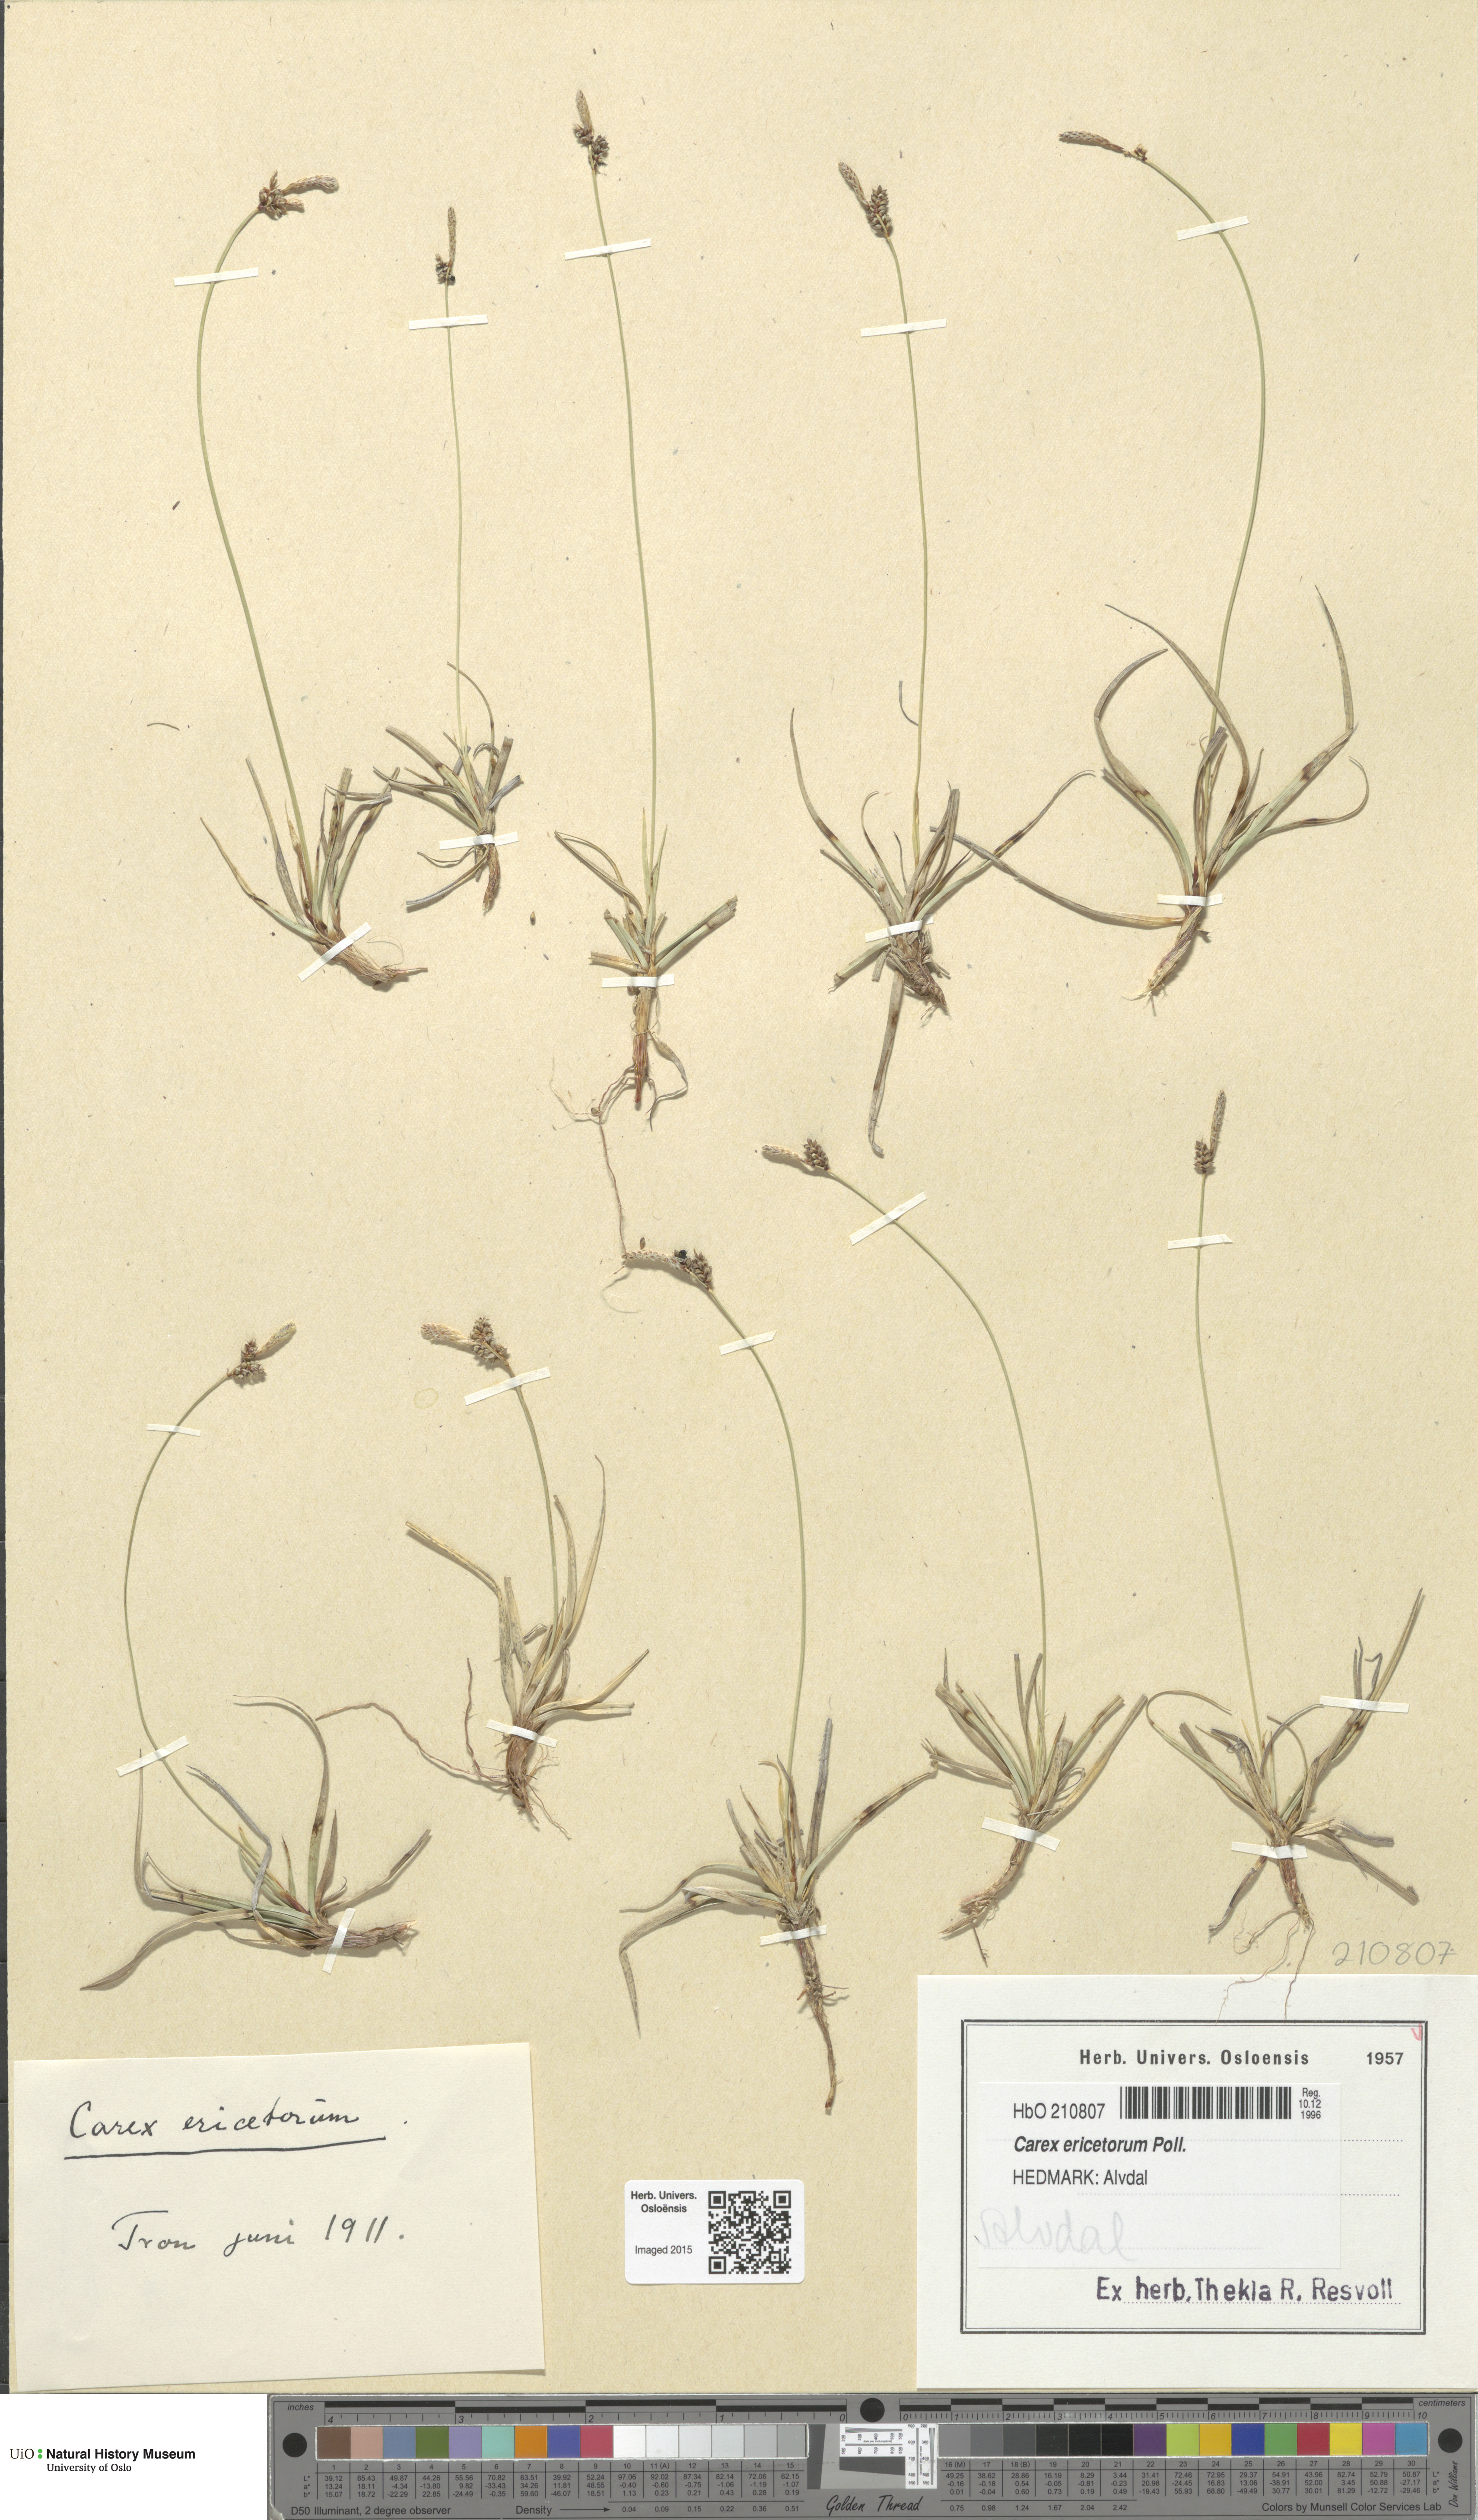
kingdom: Plantae
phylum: Tracheophyta
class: Liliopsida
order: Poales
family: Cyperaceae
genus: Carex
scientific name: Carex ericetorum
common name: Rare spring-sedge
